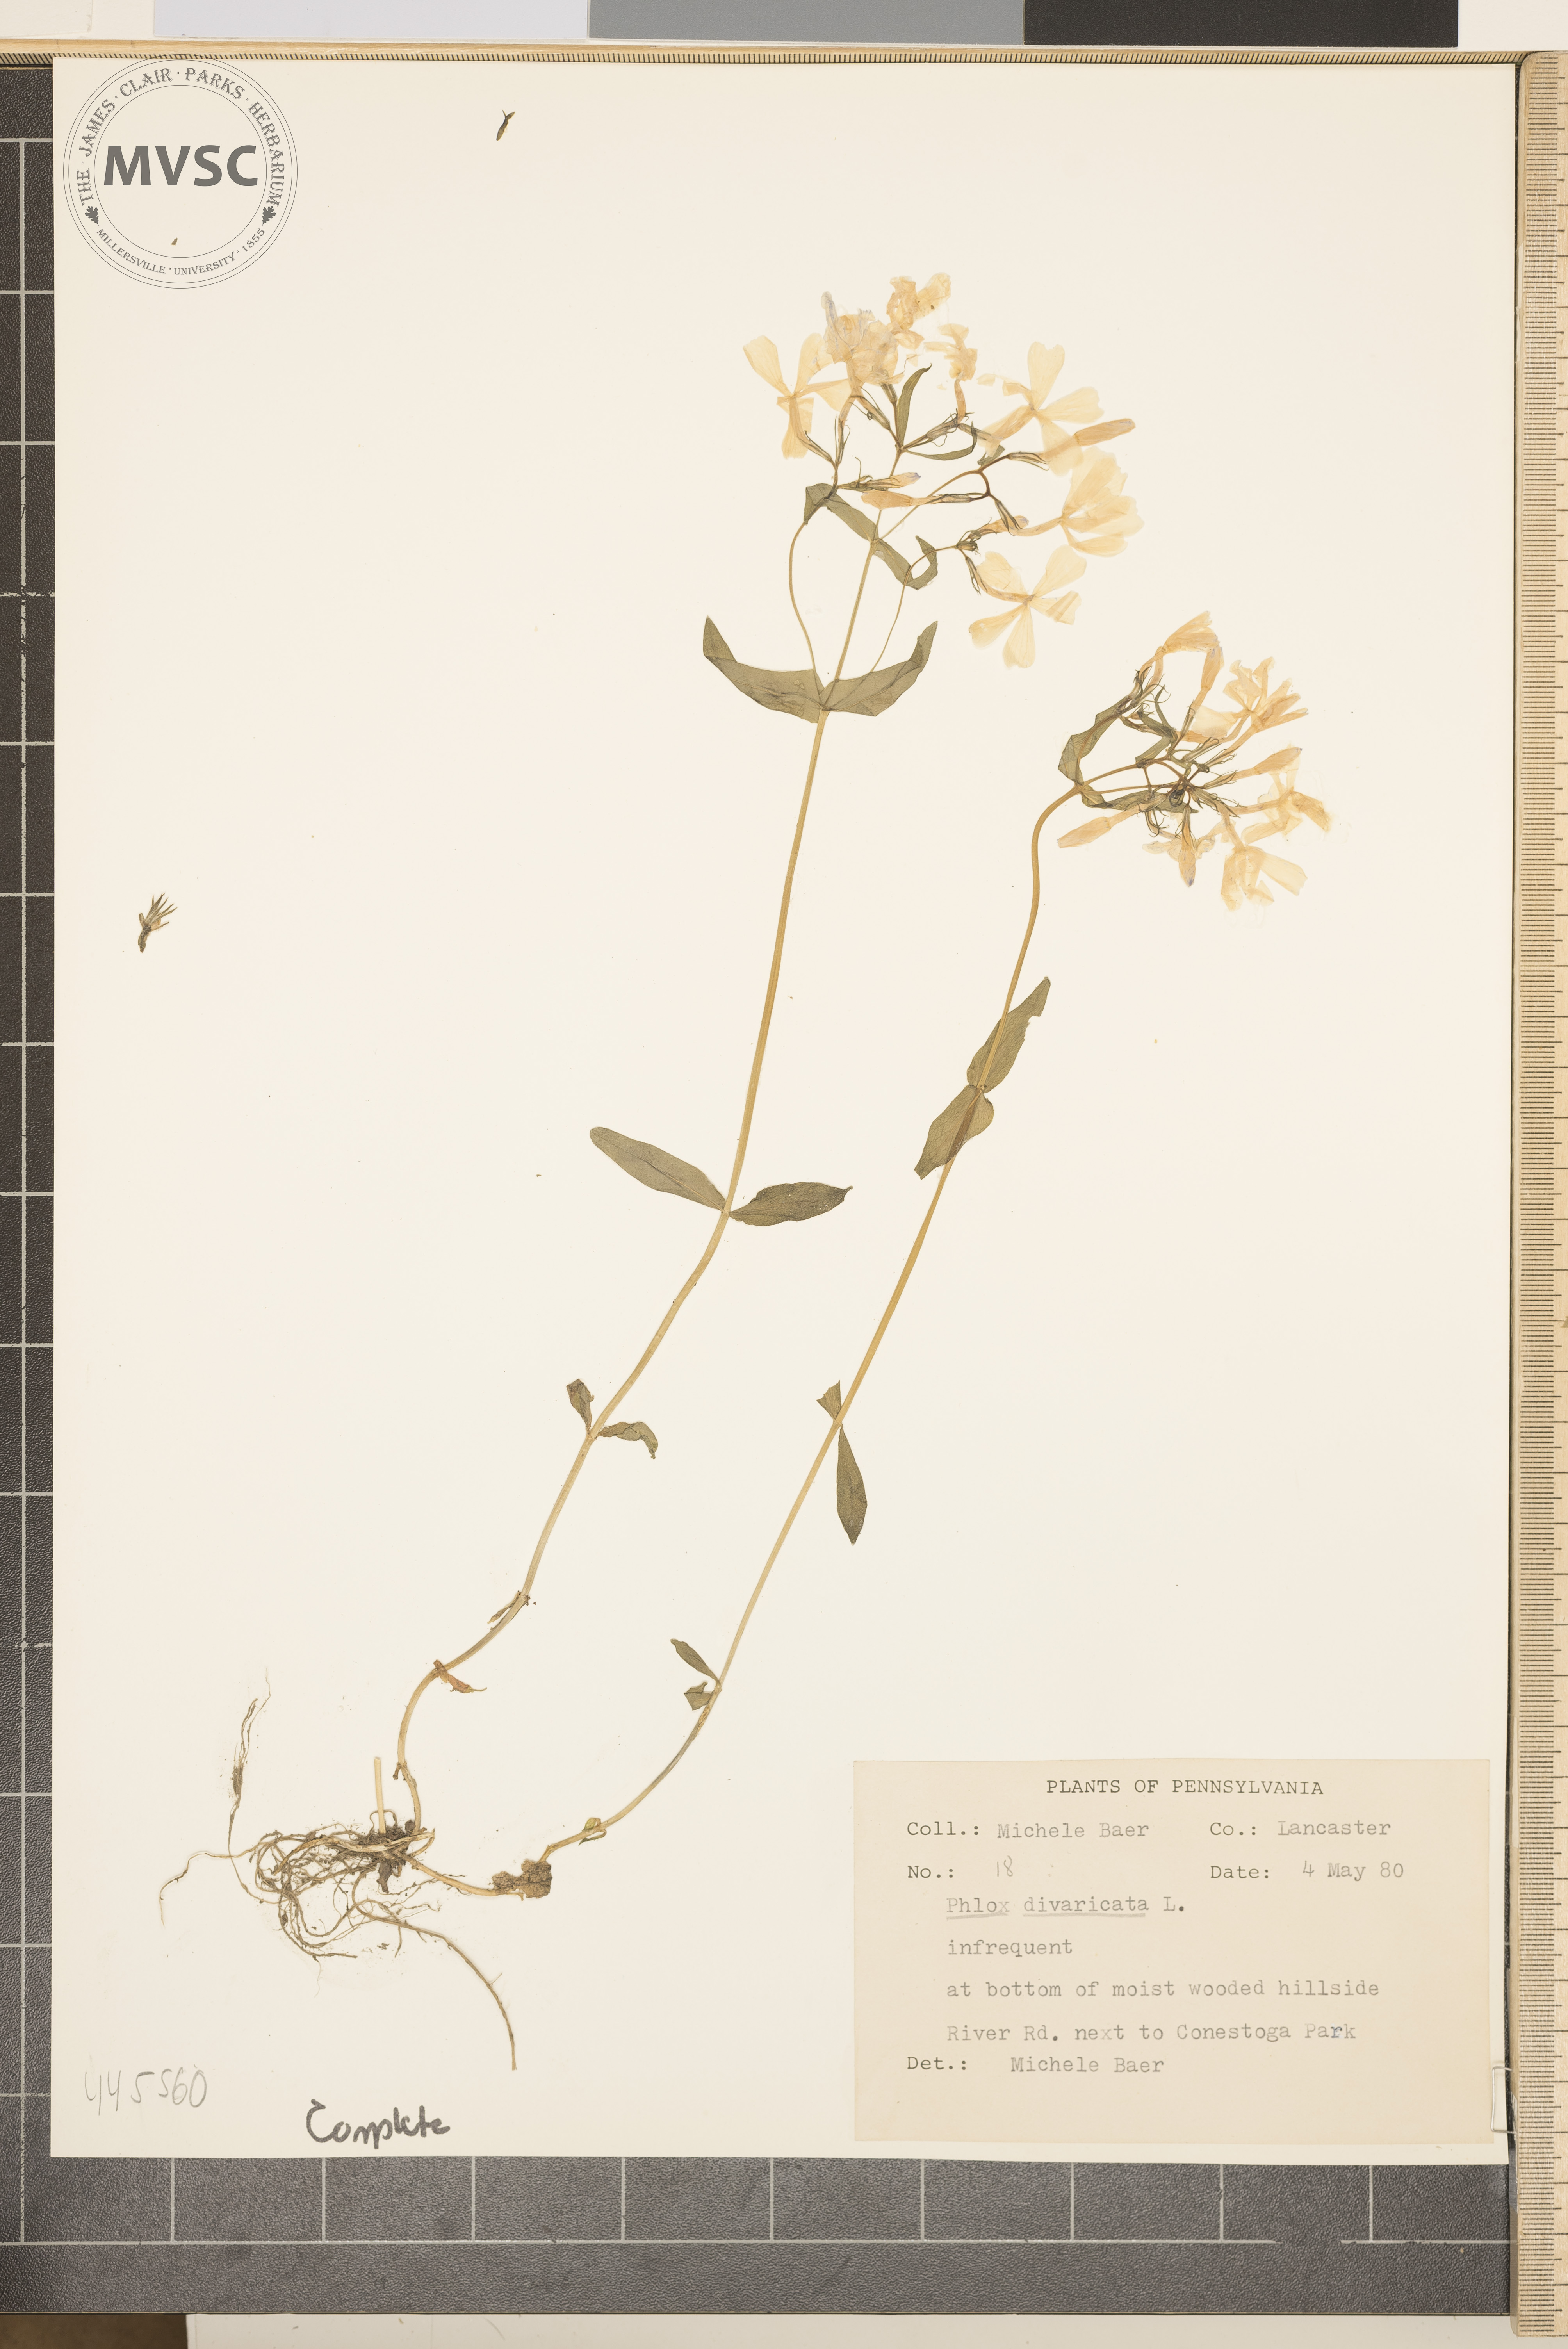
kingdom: Plantae
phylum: Tracheophyta
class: Magnoliopsida
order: Ericales
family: Polemoniaceae
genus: Phlox
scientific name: Phlox divaricata
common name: Blue phlox
